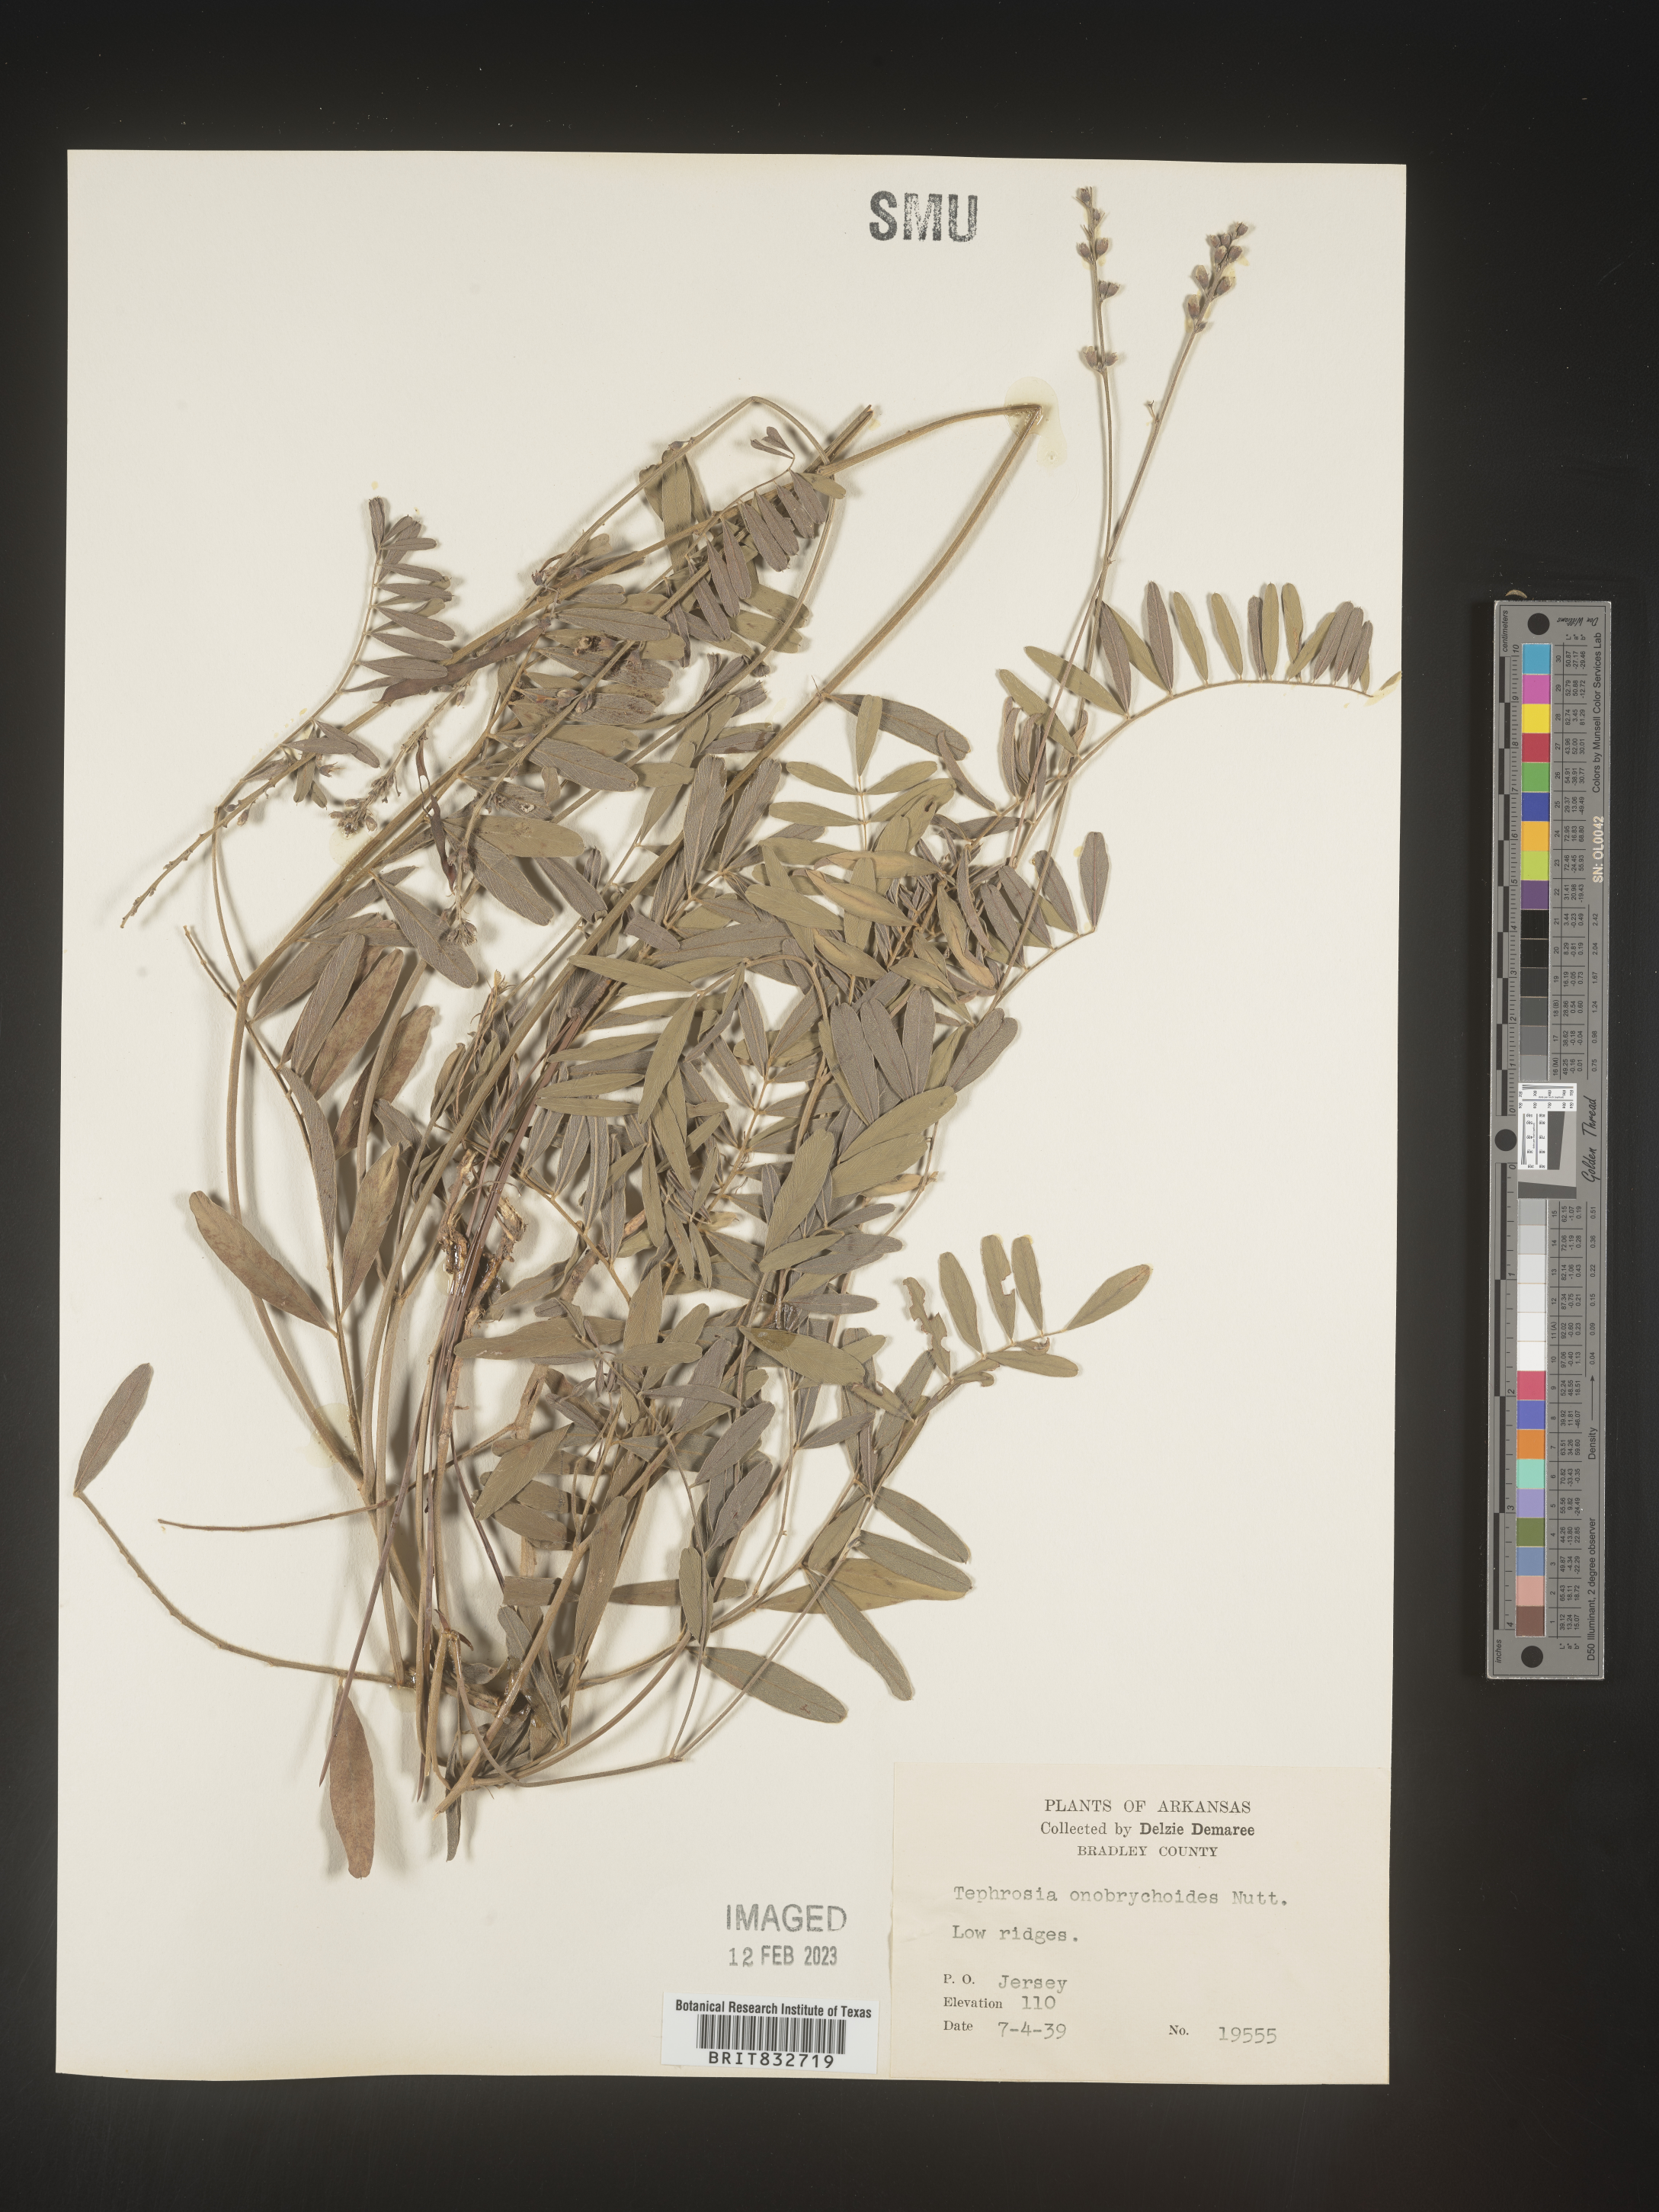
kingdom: Plantae
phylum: Tracheophyta
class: Magnoliopsida
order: Fabales
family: Fabaceae
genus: Tephrosia
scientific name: Tephrosia onobrychoides
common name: Multi-bloom hoary-pea
